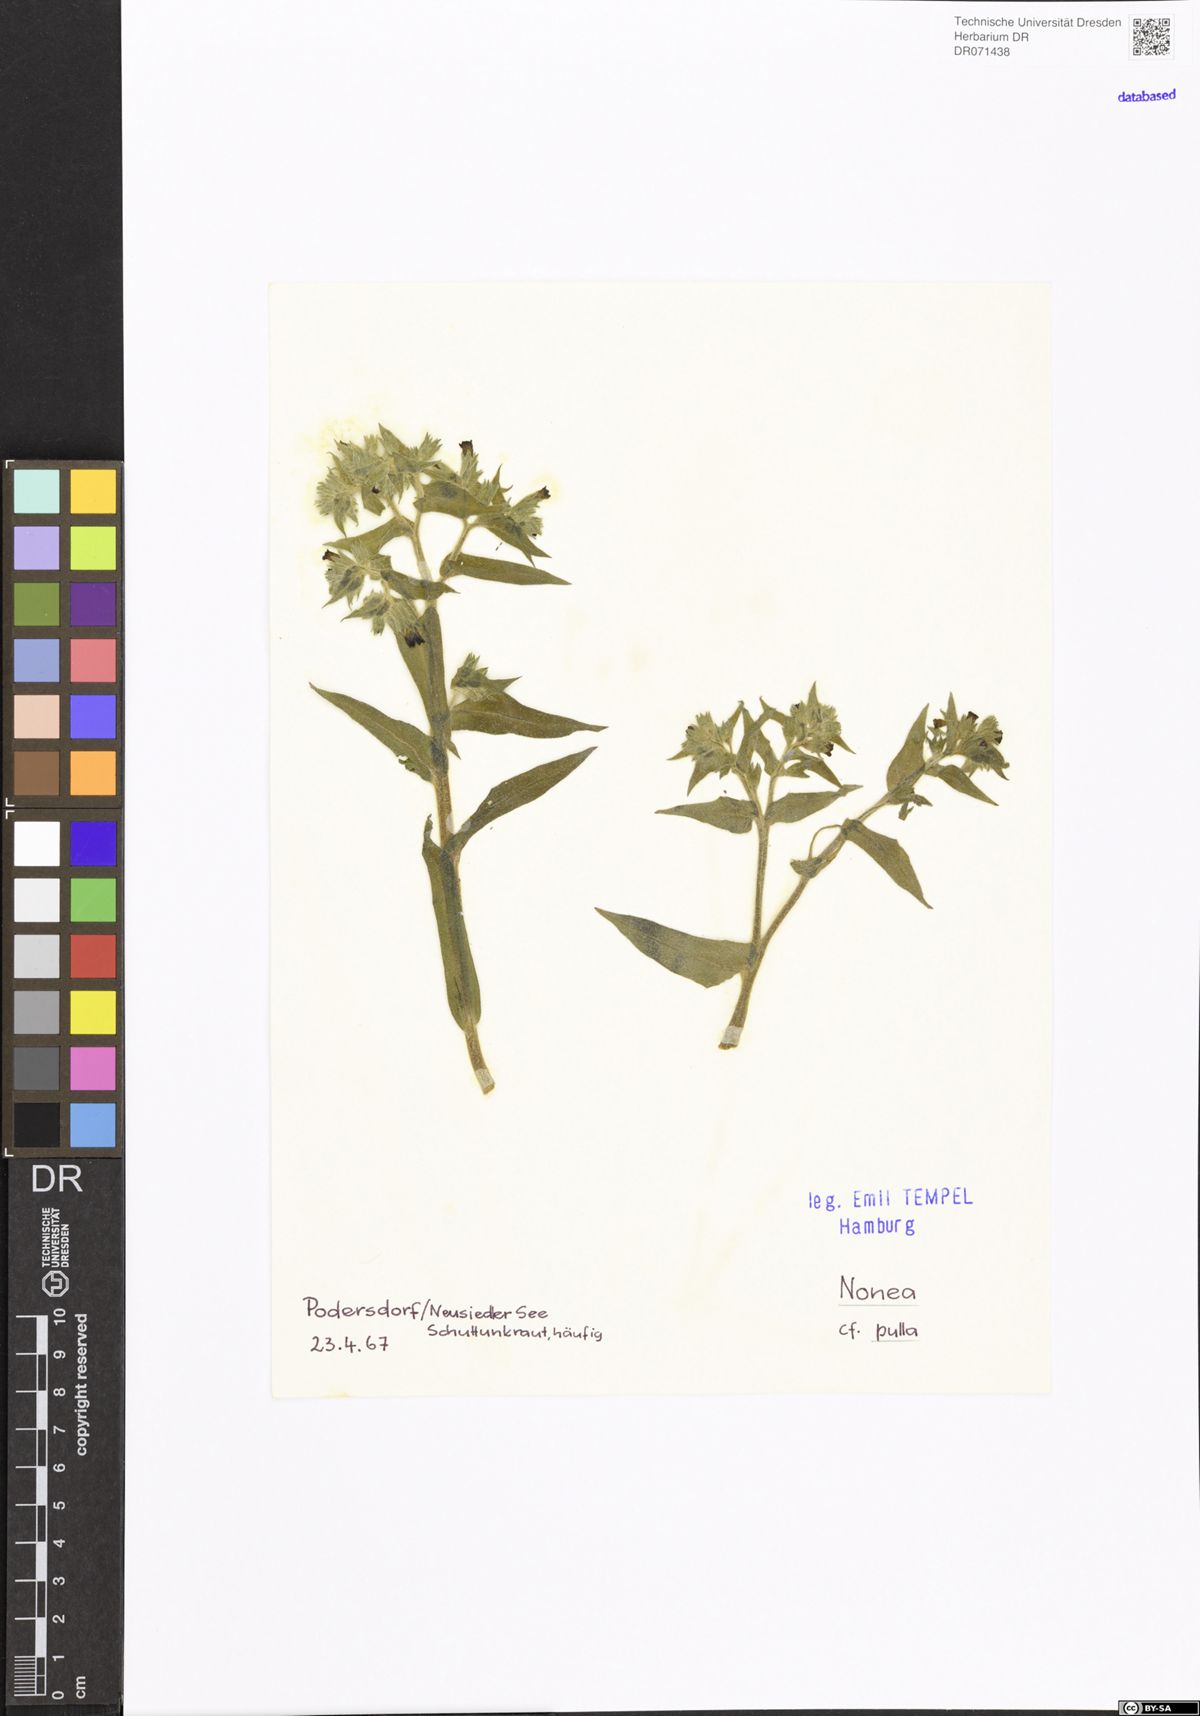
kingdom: Plantae
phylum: Tracheophyta
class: Magnoliopsida
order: Boraginales
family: Boraginaceae
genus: Nonea
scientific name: Nonea pulla
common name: Brown nonea
